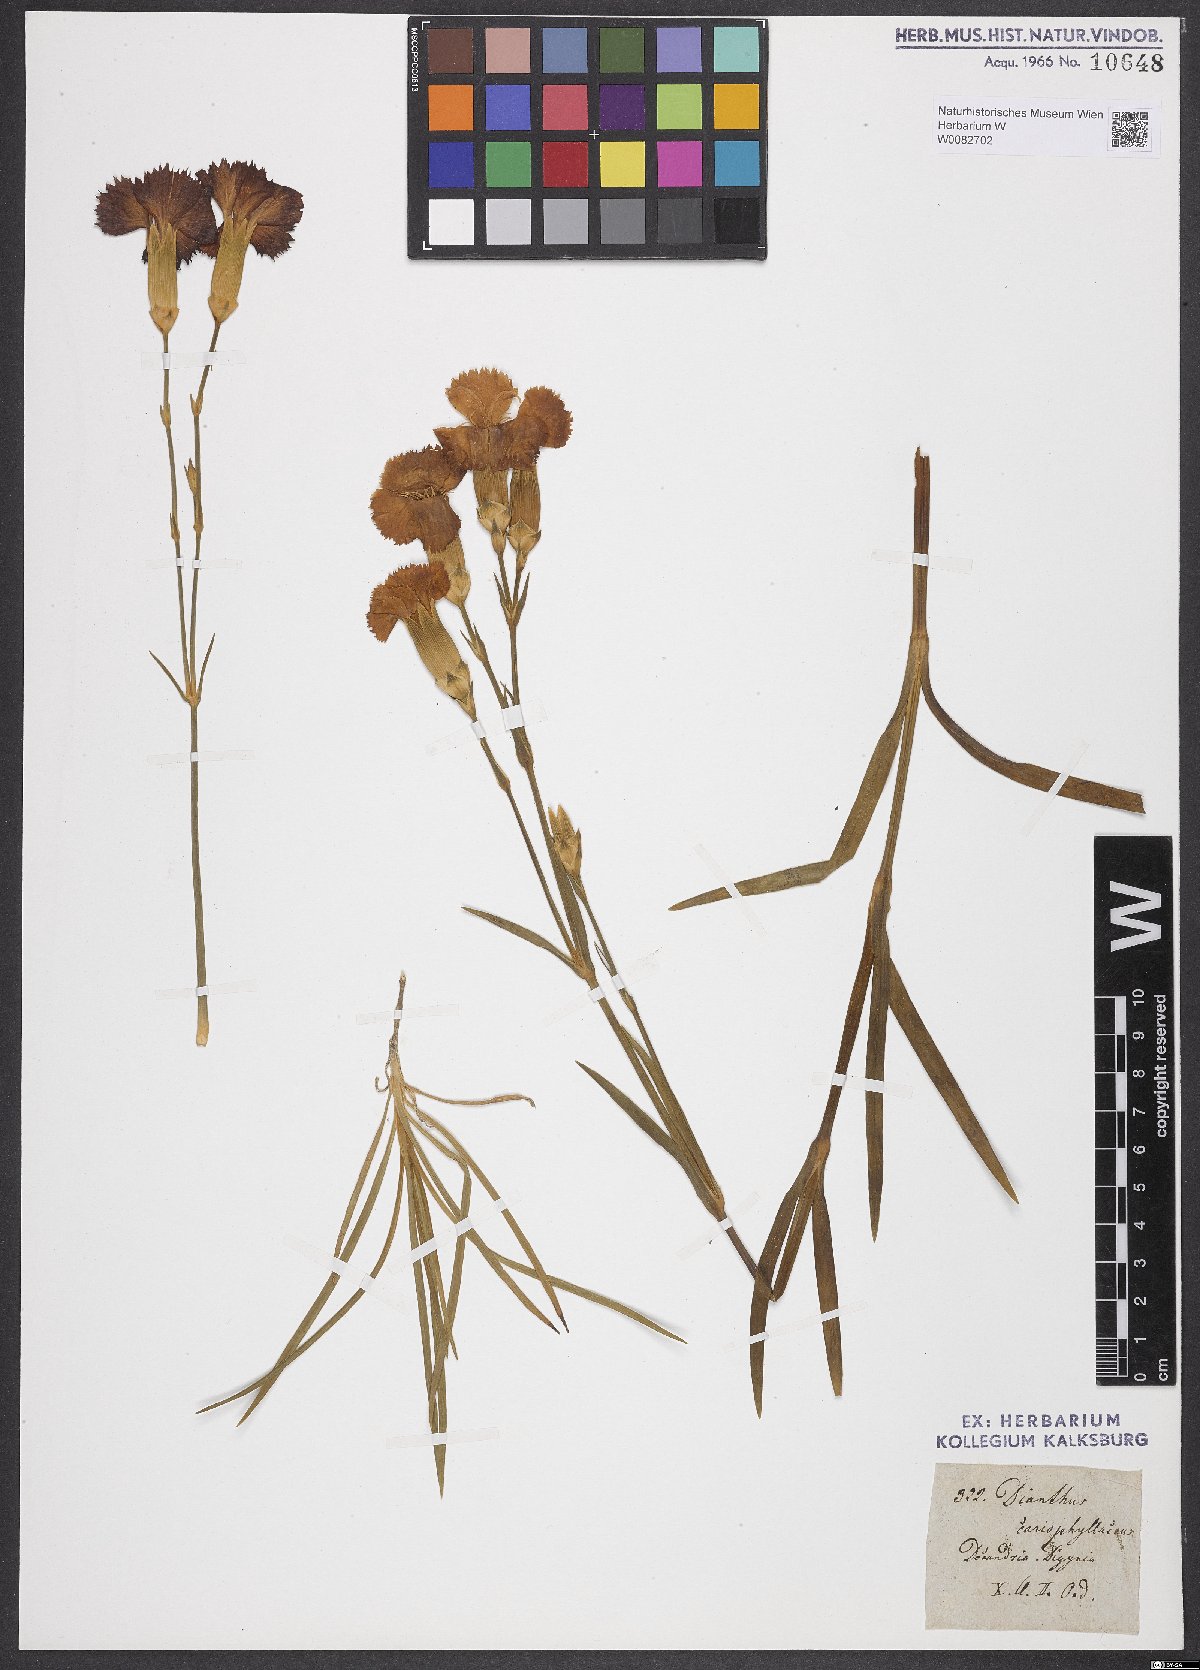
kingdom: Plantae
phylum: Tracheophyta
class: Magnoliopsida
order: Caryophyllales
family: Caryophyllaceae
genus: Dianthus
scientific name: Dianthus caryophyllus
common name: Clove pink
